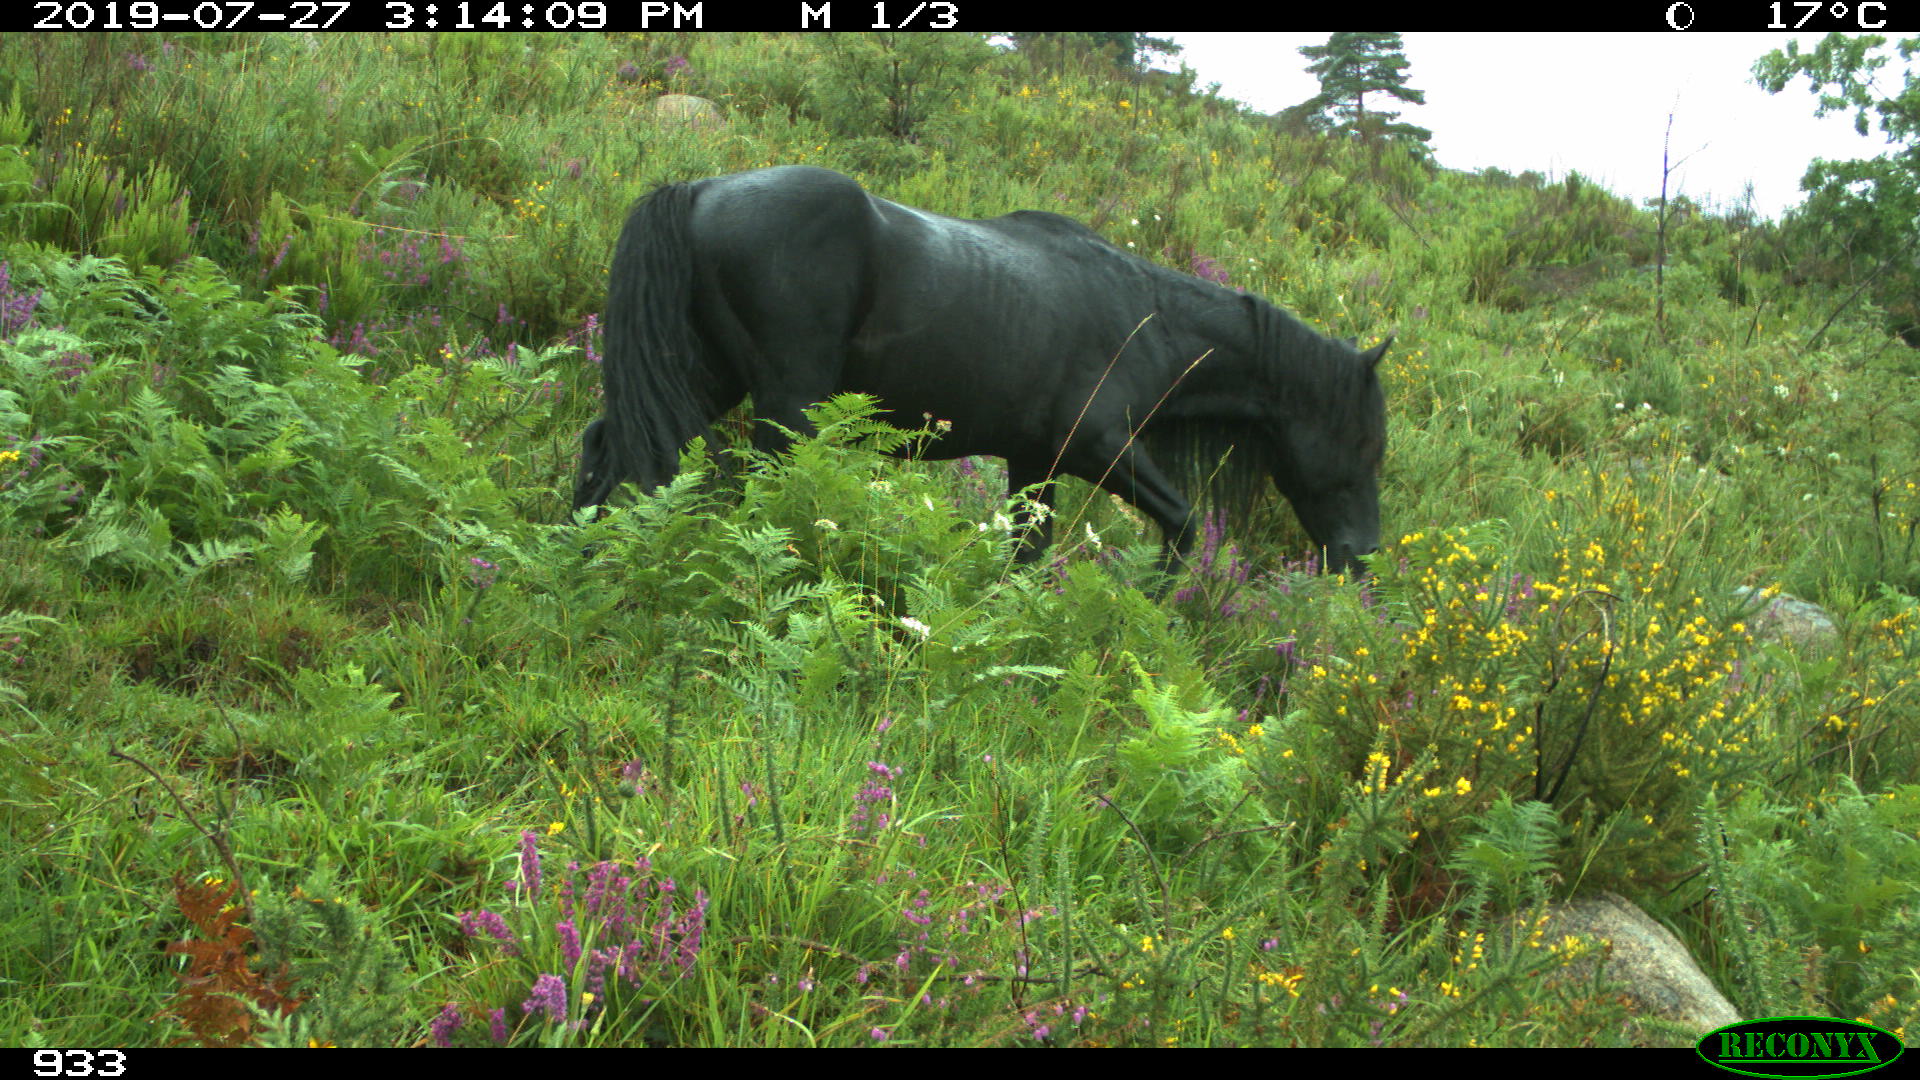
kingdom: Animalia
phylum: Chordata
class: Mammalia
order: Perissodactyla
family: Equidae
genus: Equus
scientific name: Equus caballus
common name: Horse
